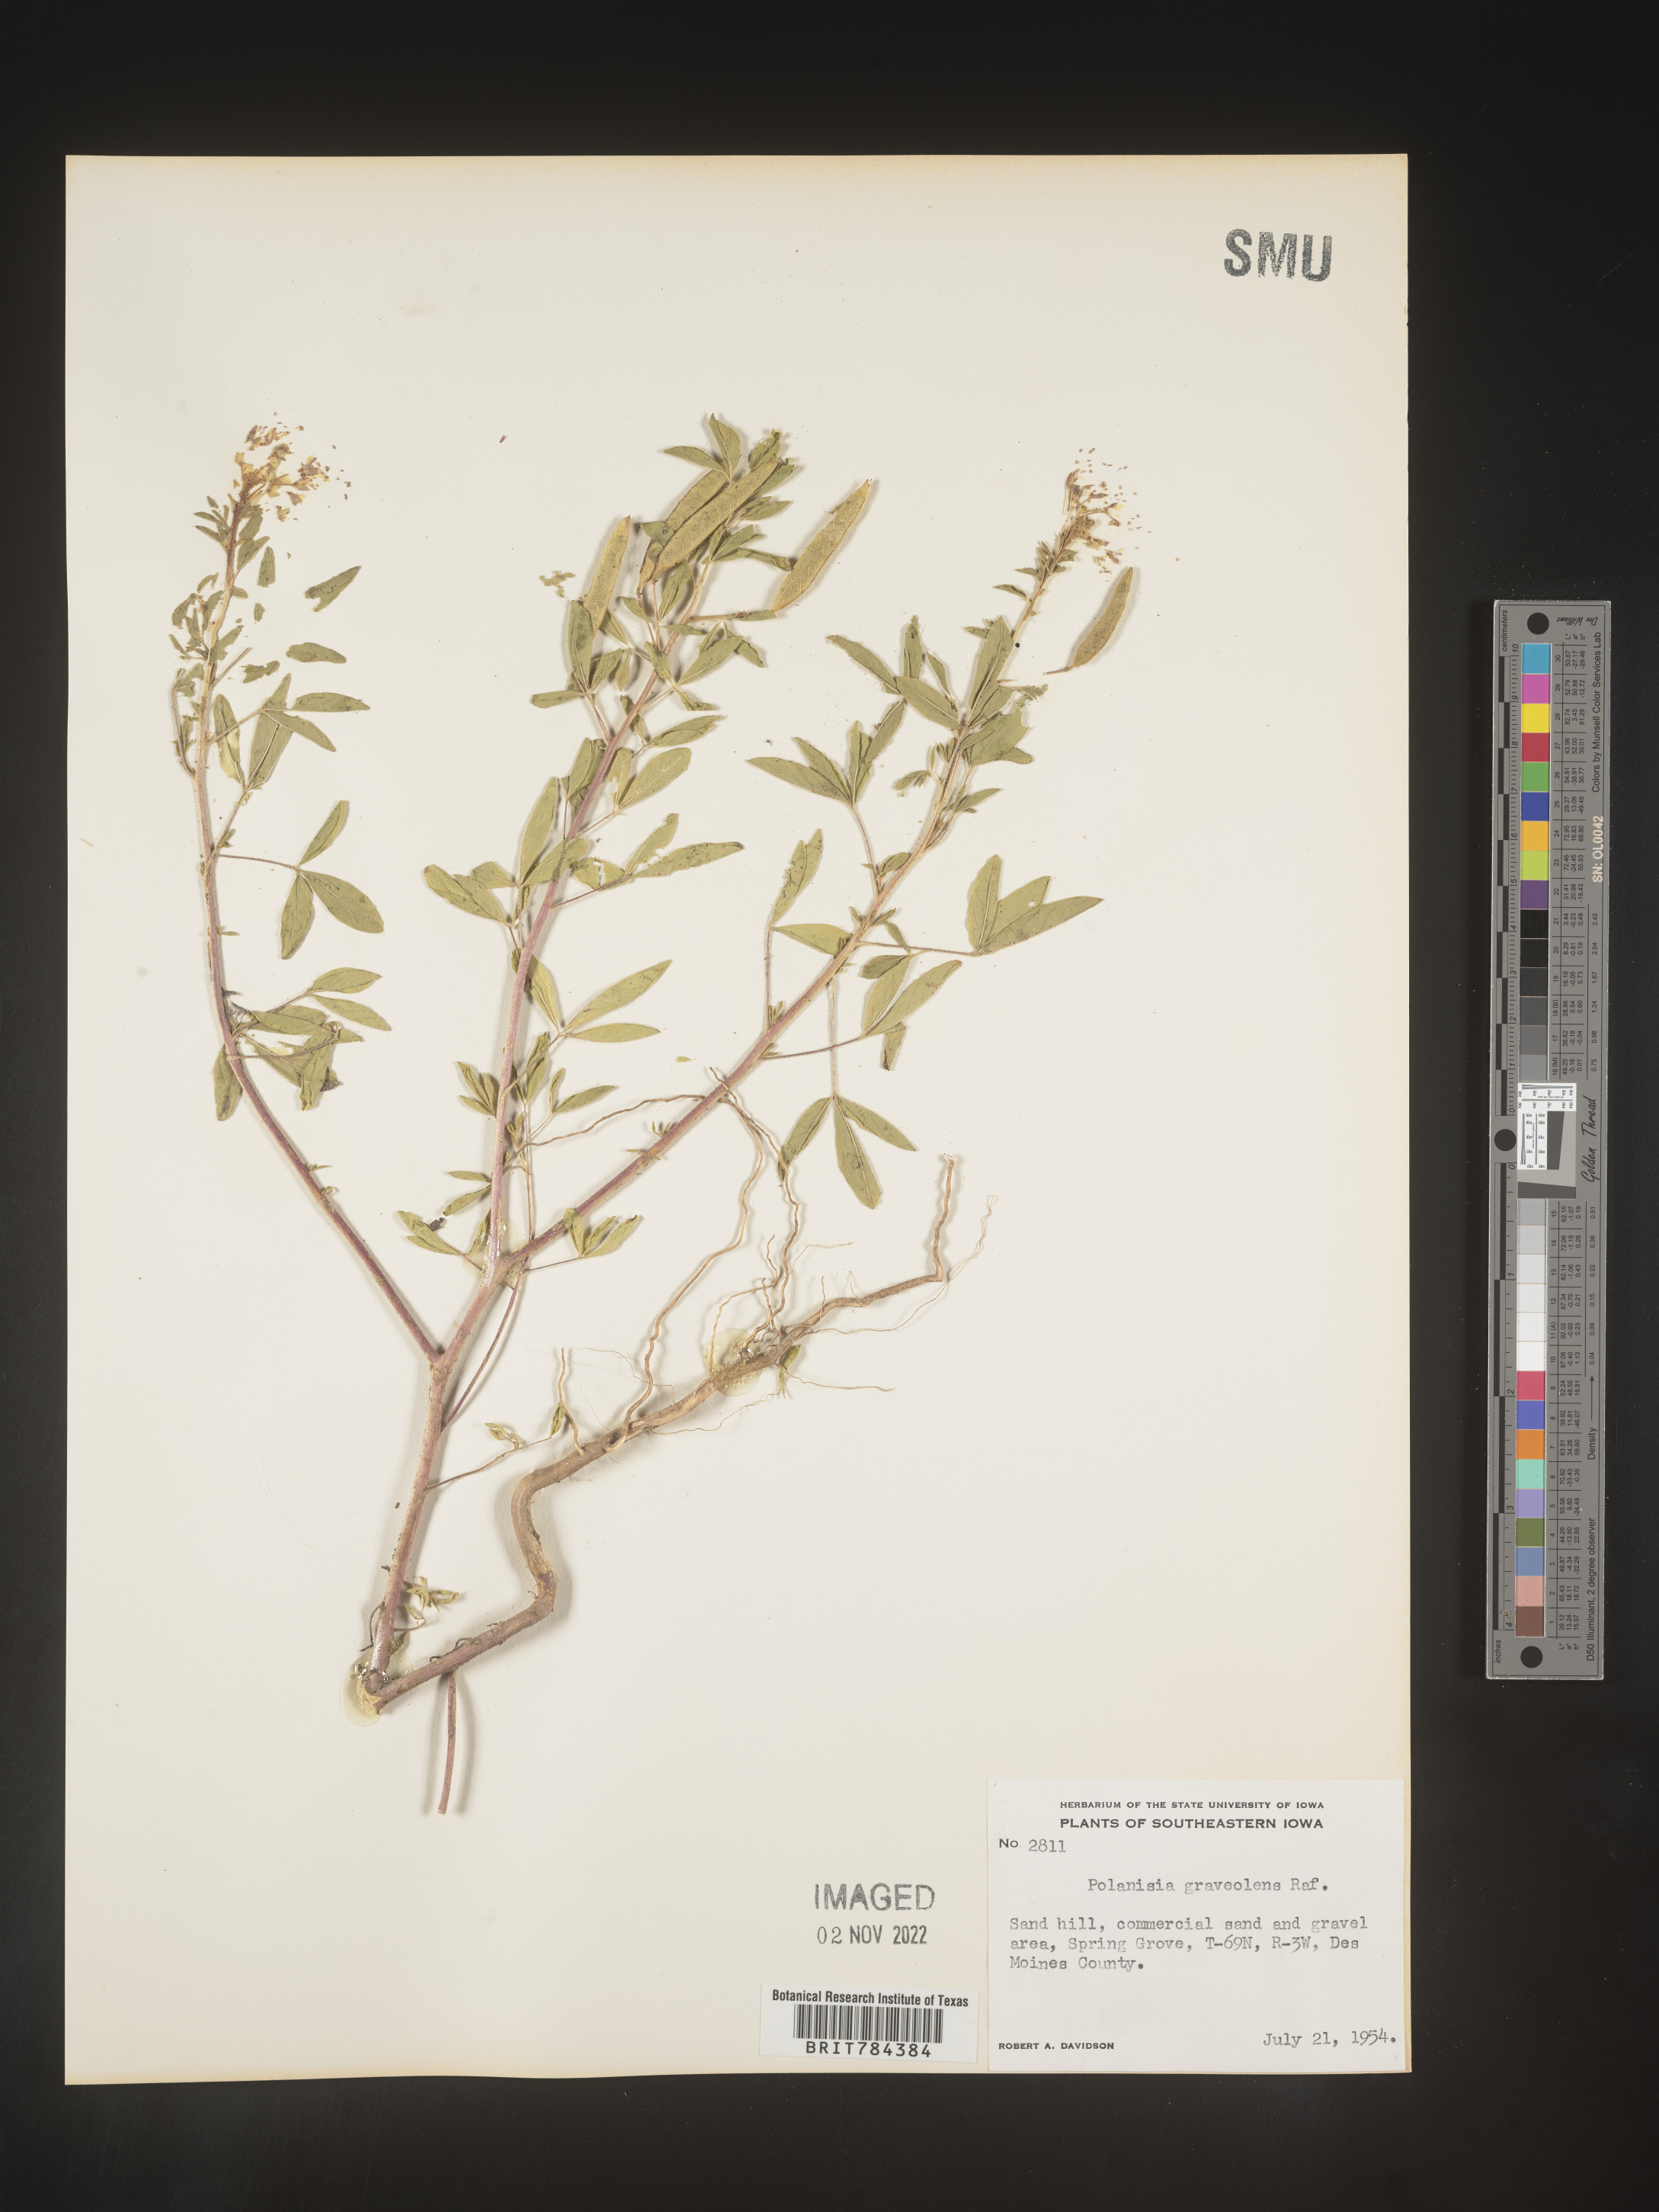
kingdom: Plantae
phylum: Tracheophyta
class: Magnoliopsida
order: Brassicales
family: Cleomaceae
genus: Polanisia
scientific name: Polanisia dodecandra
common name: Clammyweed
